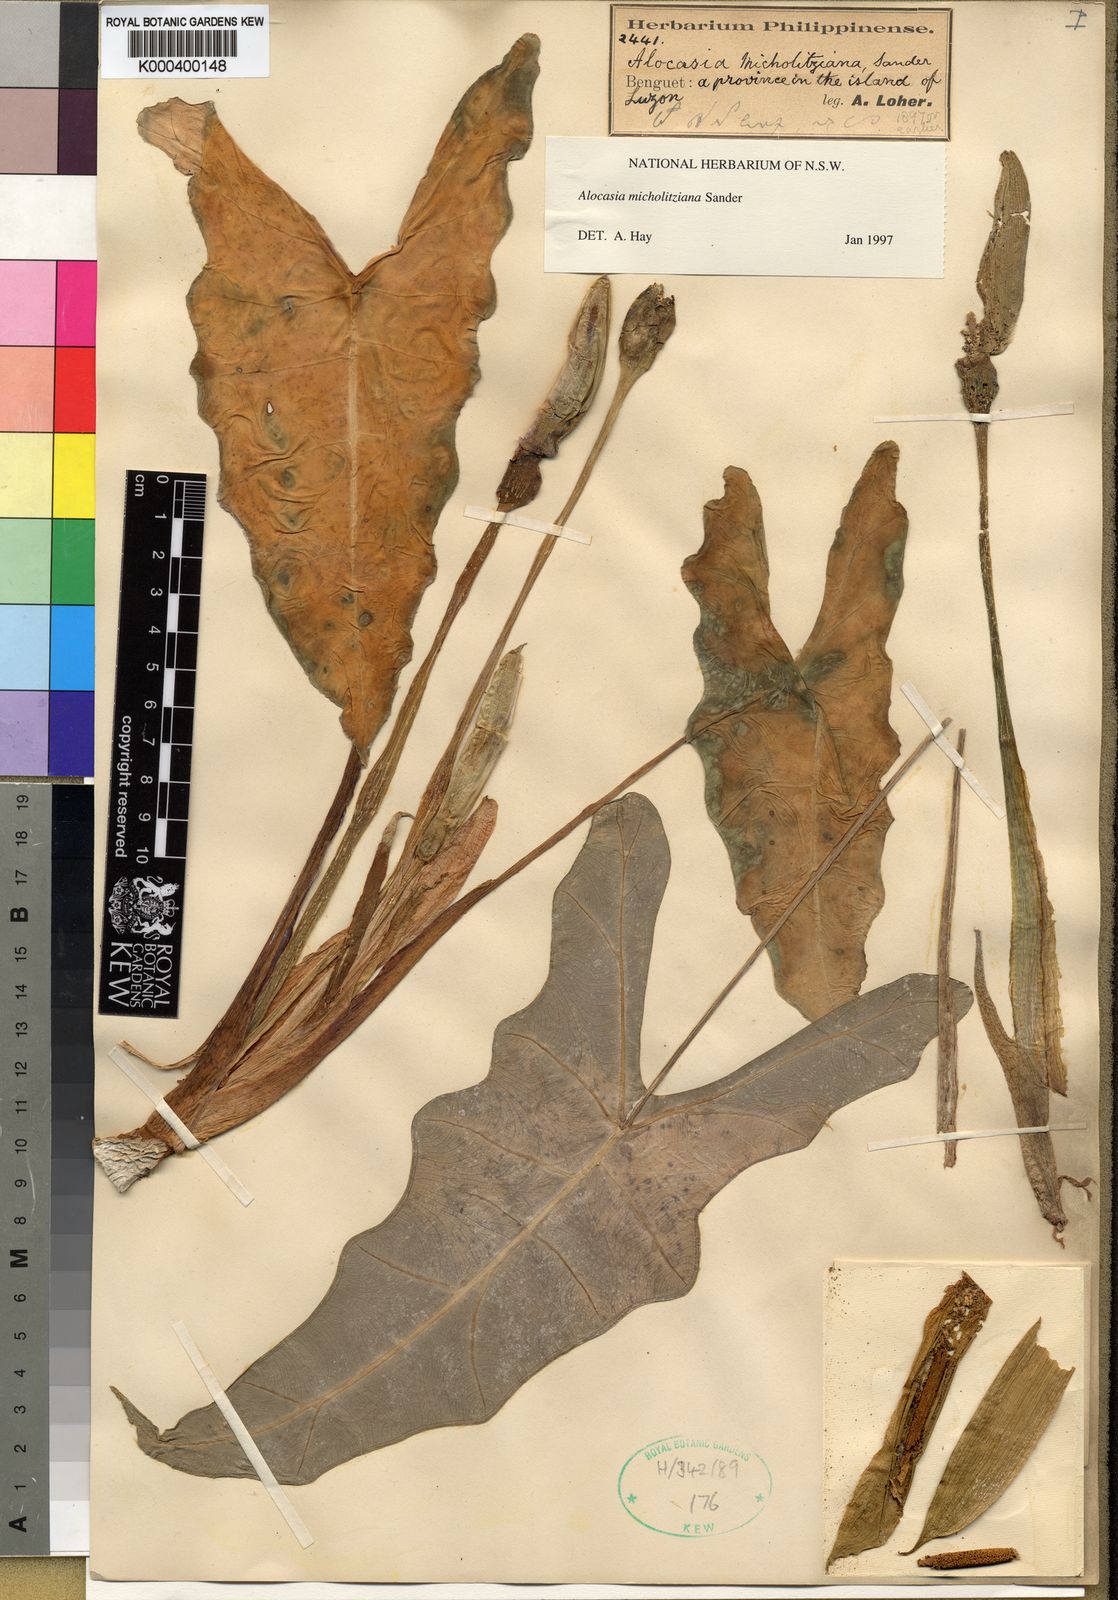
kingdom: Plantae
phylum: Tracheophyta
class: Liliopsida
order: Alismatales
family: Araceae
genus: Alocasia
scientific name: Alocasia micholitziana
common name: Green-velvet alocasia
